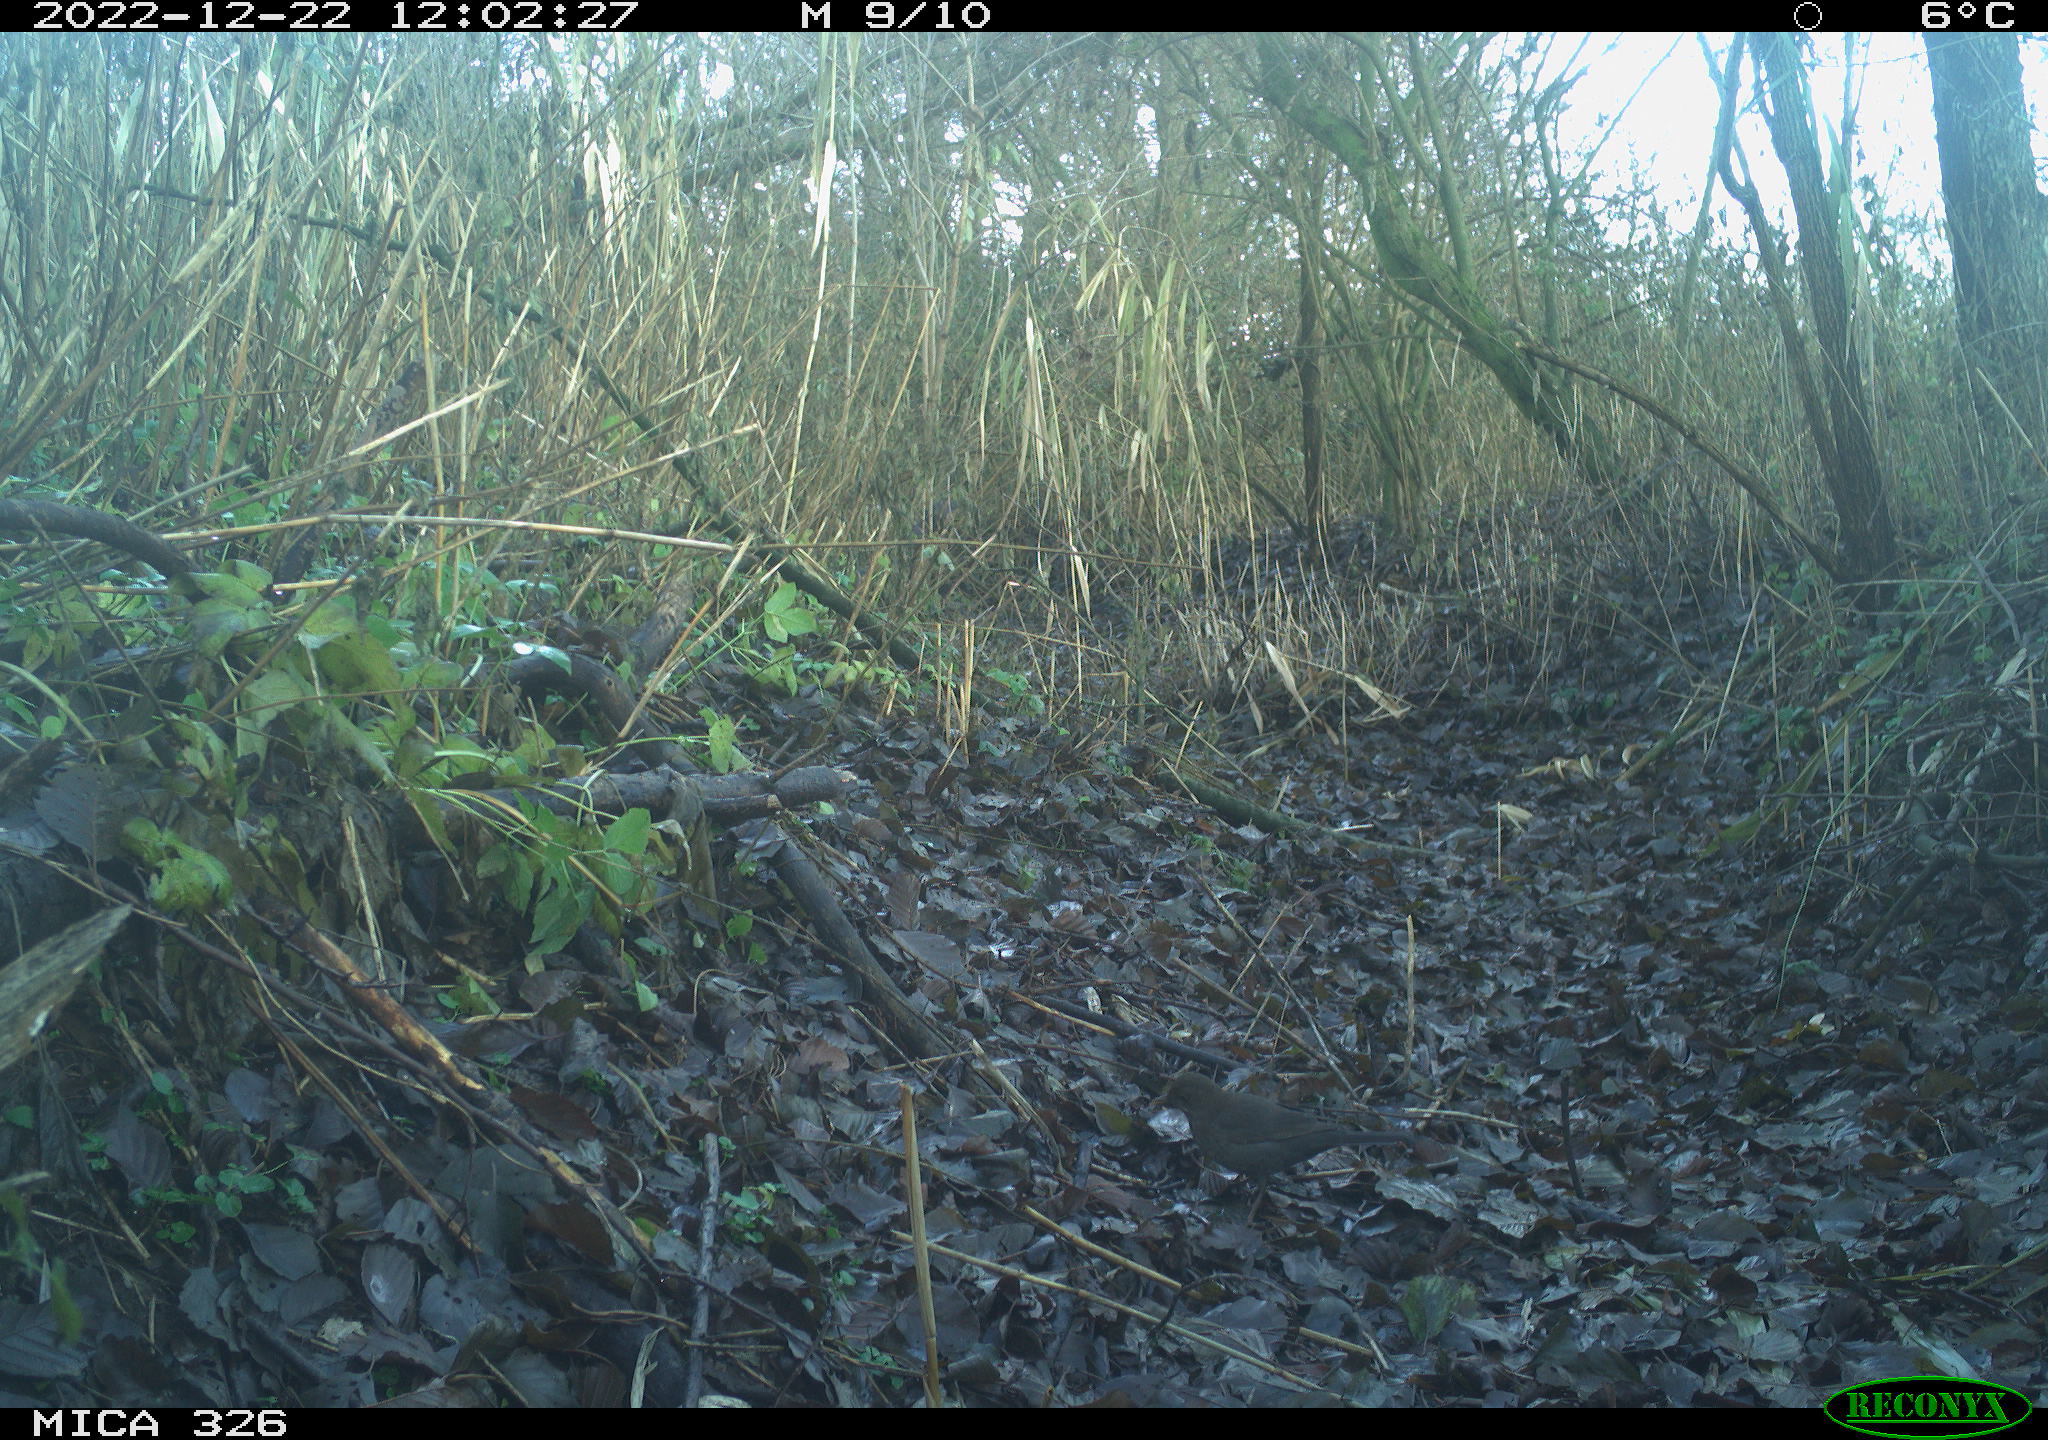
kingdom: Animalia
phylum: Chordata
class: Aves
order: Passeriformes
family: Turdidae
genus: Turdus
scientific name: Turdus merula
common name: Common blackbird
